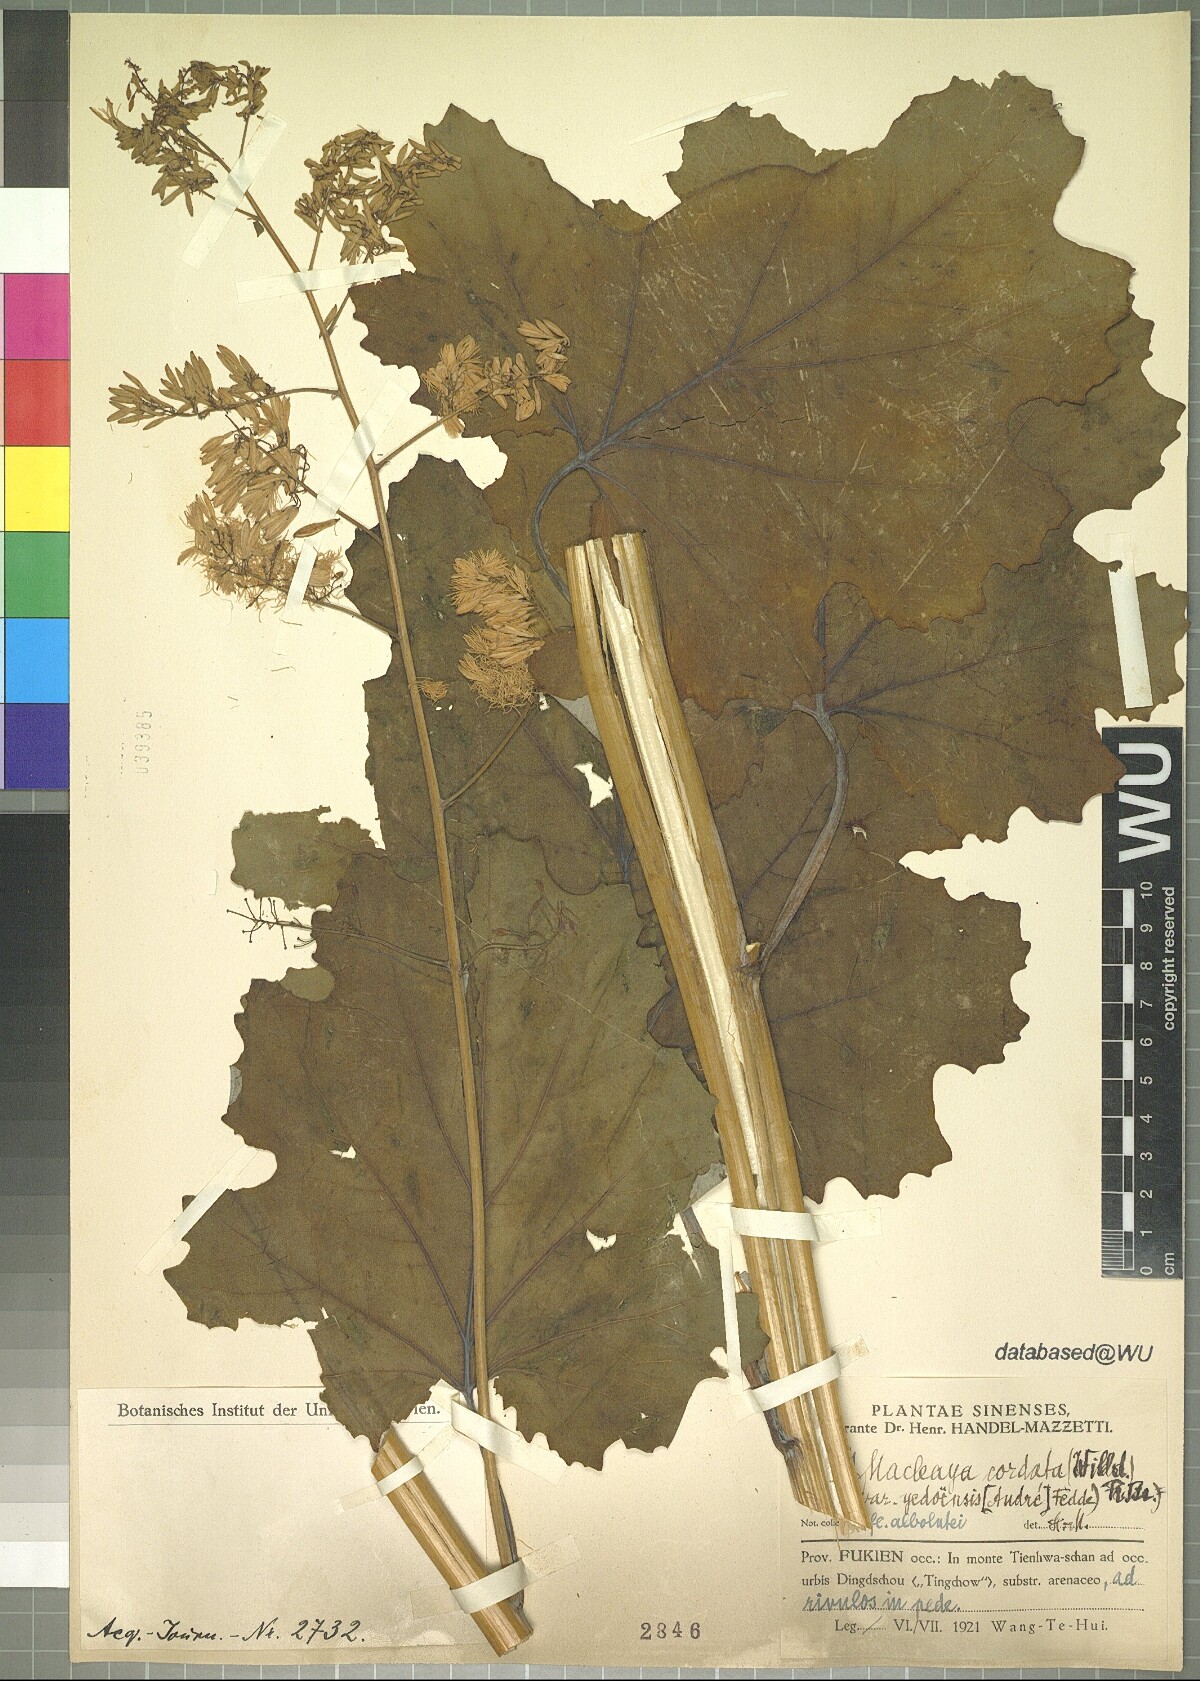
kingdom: Plantae
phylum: Tracheophyta
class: Magnoliopsida
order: Ranunculales
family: Papaveraceae
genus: Macleaya
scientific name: Macleaya cordata
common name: Plume poppy
